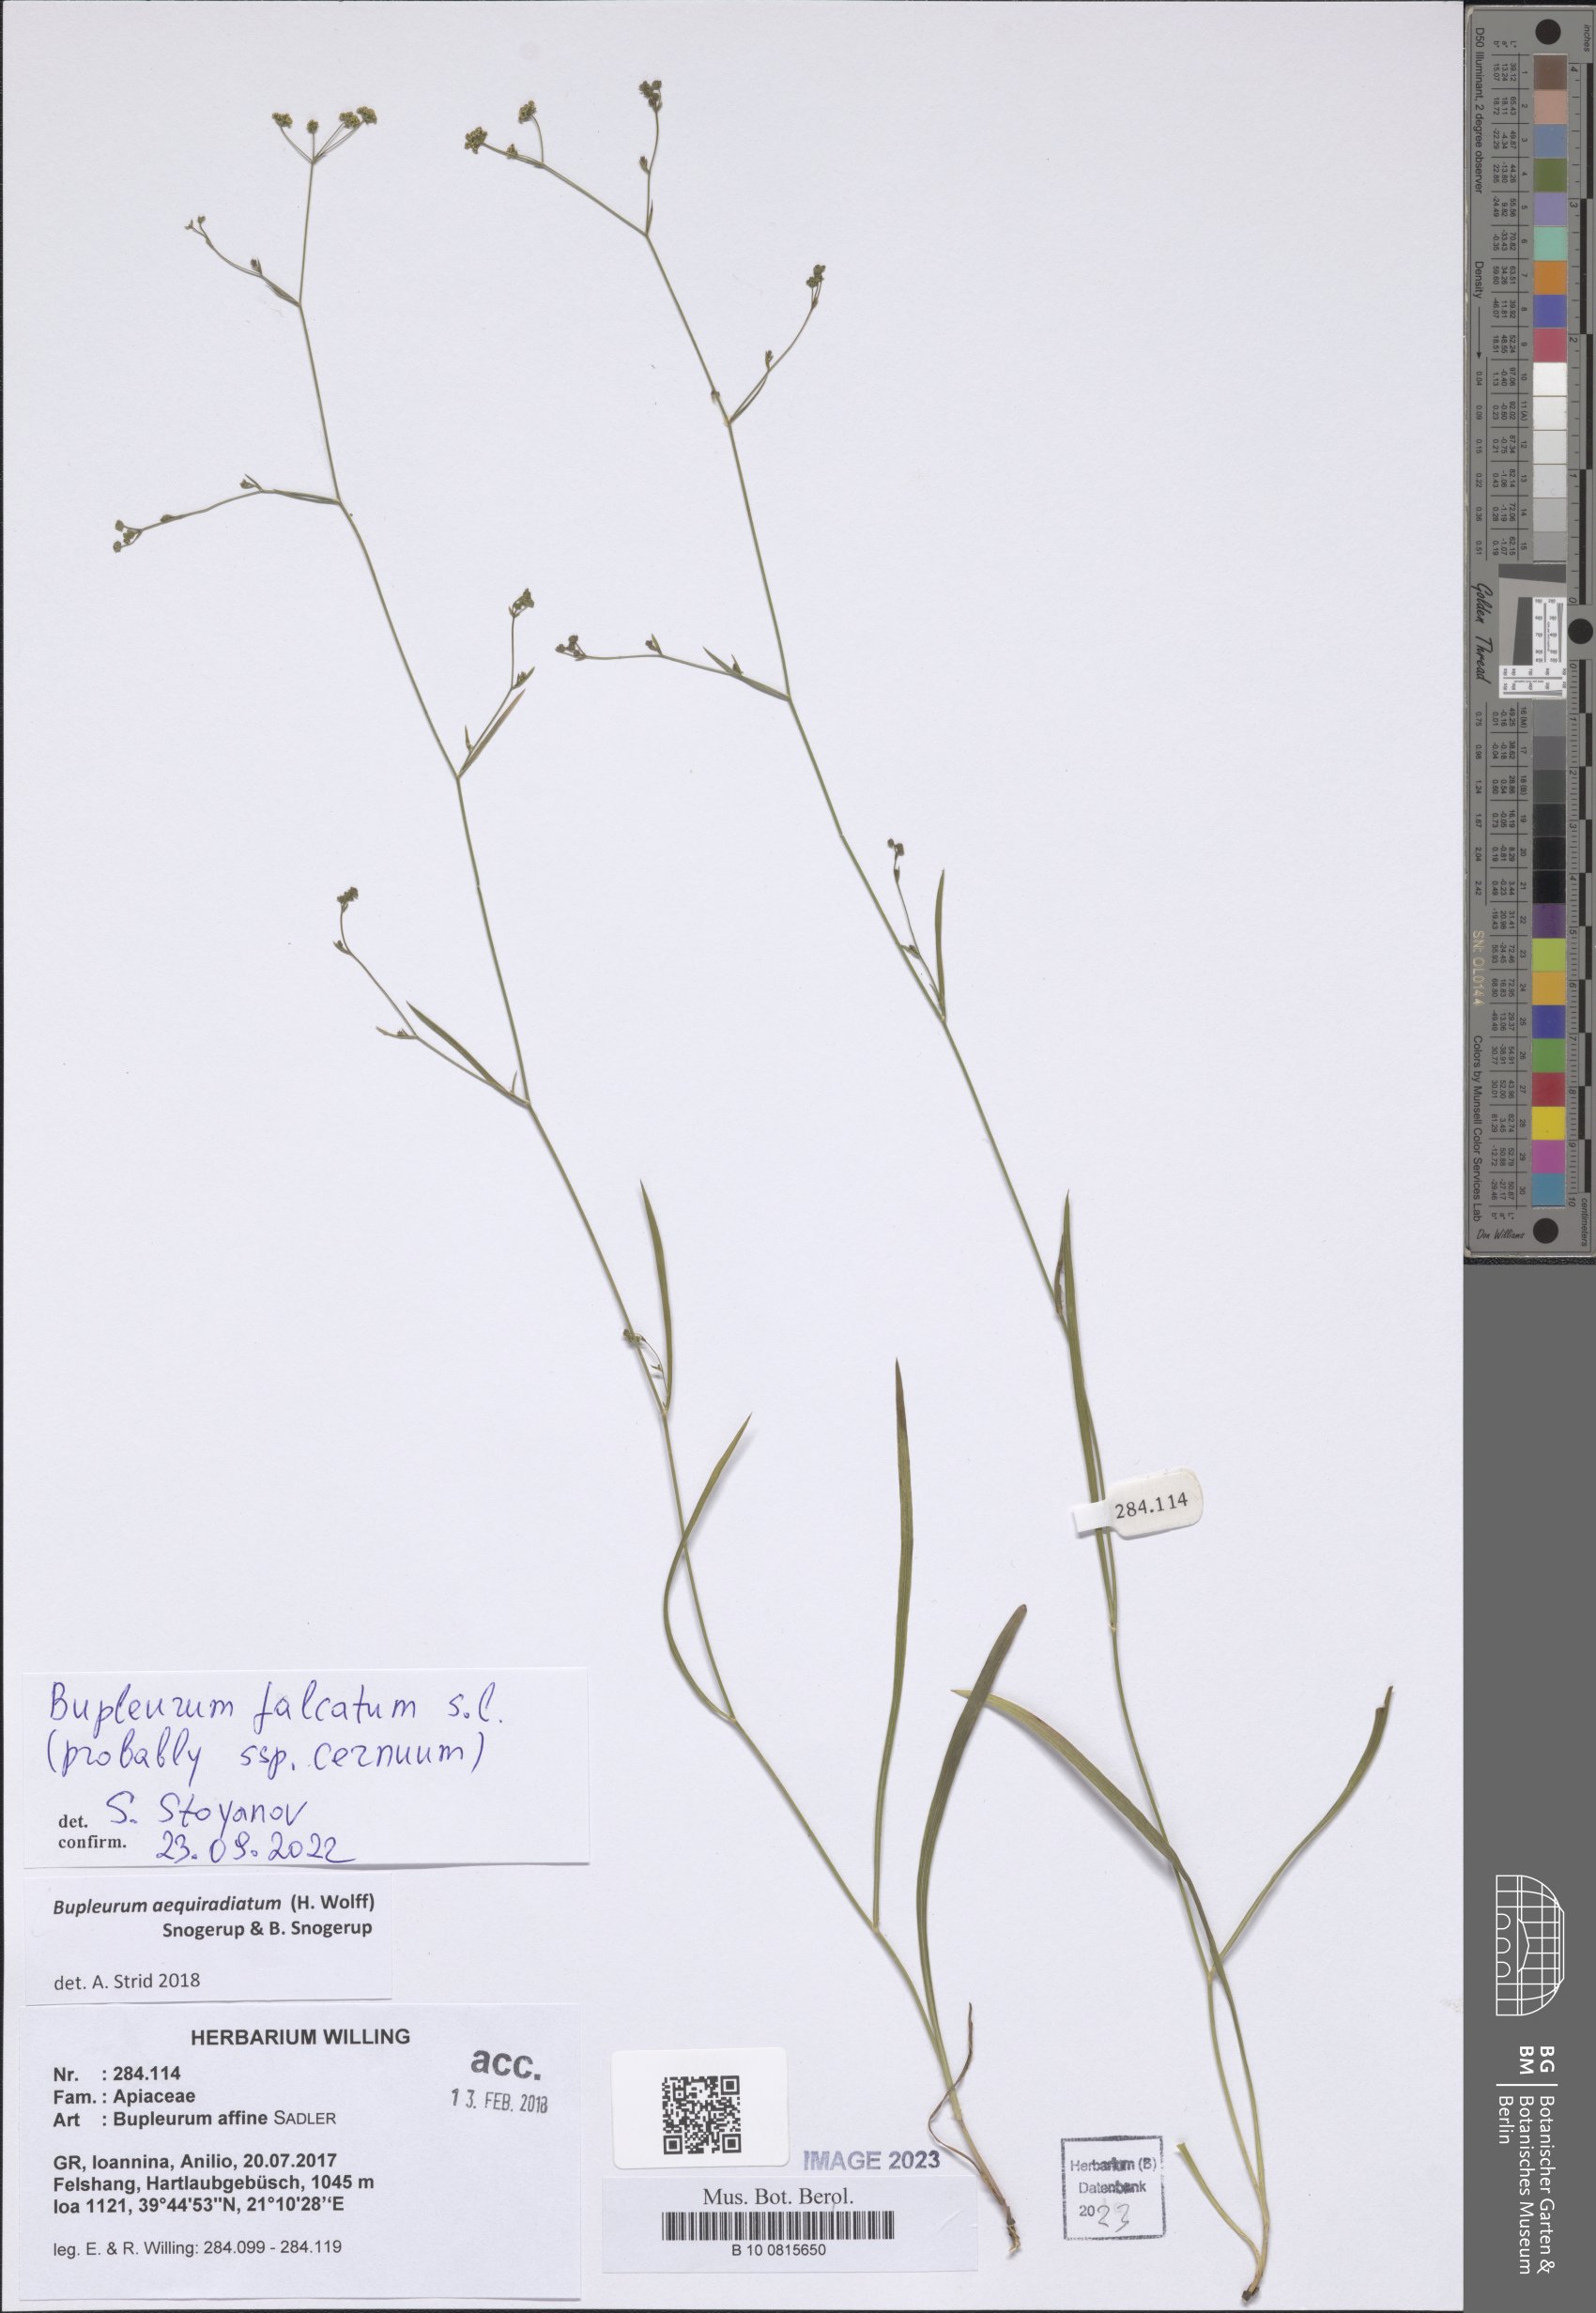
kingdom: Plantae
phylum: Tracheophyta
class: Magnoliopsida
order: Apiales
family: Apiaceae
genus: Bupleurum
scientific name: Bupleurum falcatum
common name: Sickle-leaved hare's-ear
